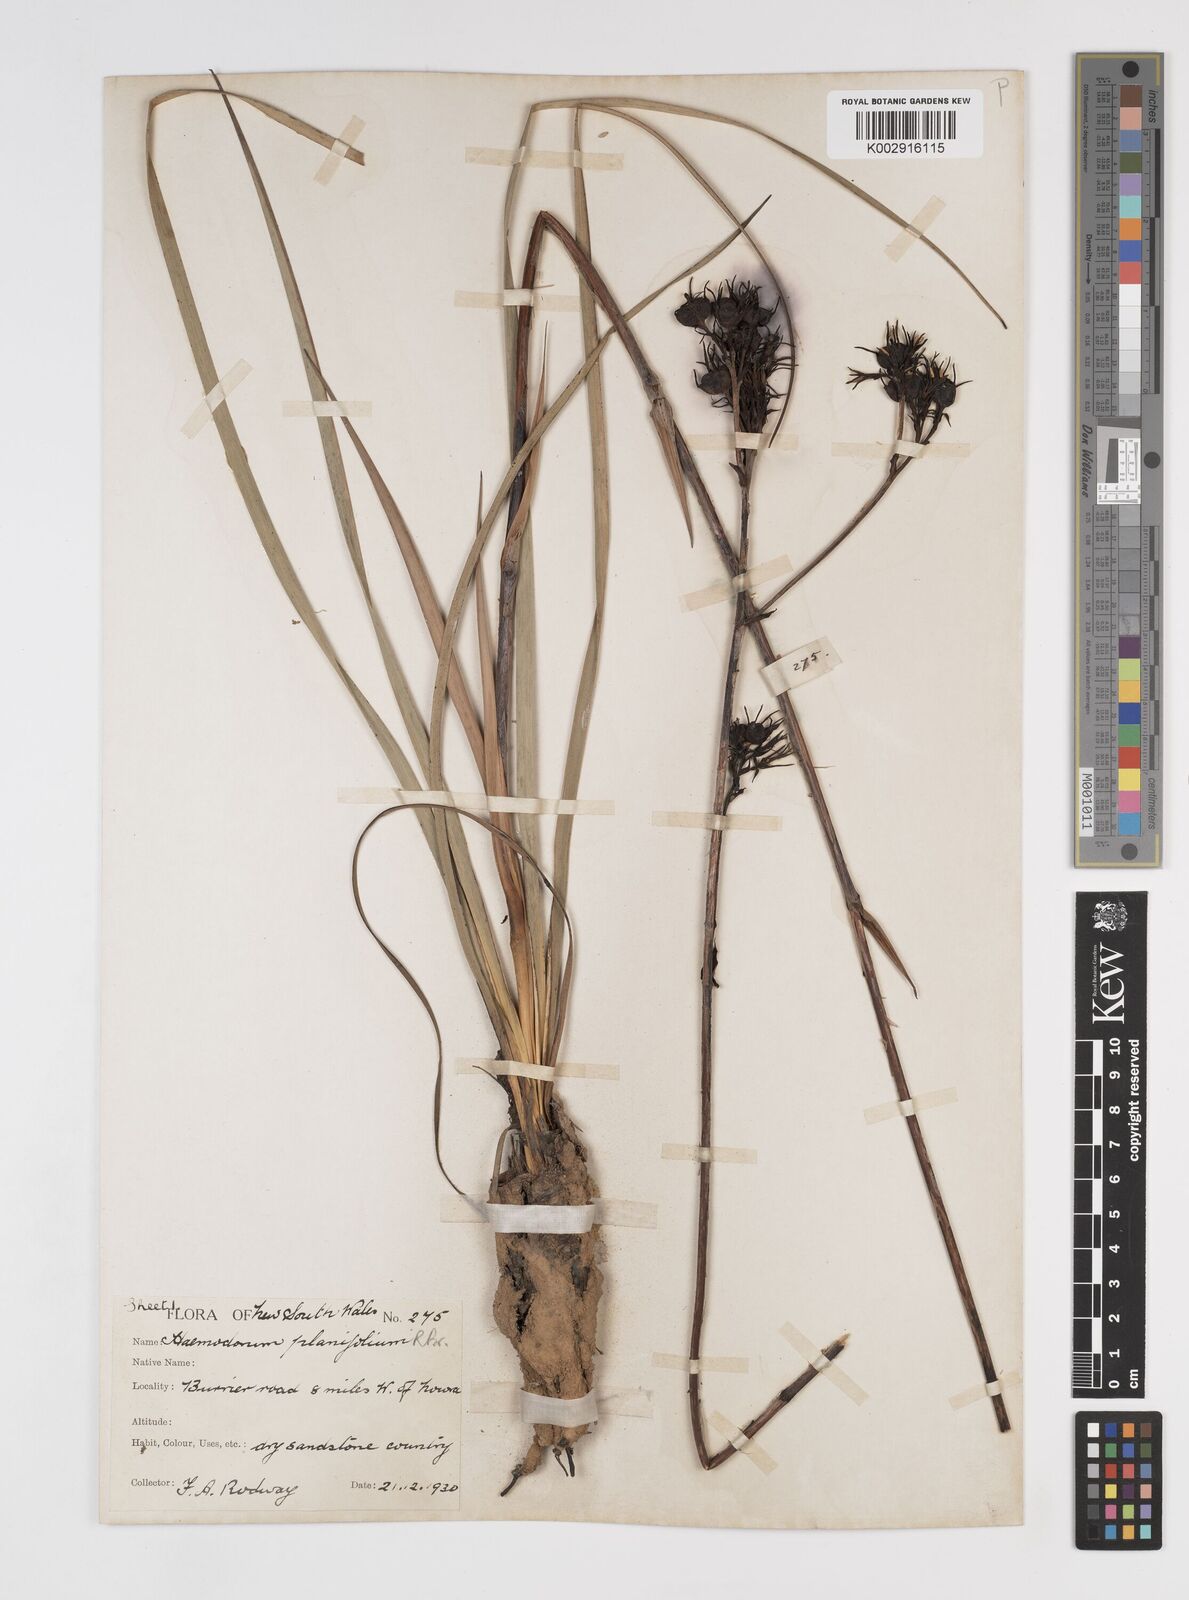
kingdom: Plantae
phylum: Tracheophyta
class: Liliopsida
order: Commelinales
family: Haemodoraceae
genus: Haemodorum
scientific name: Haemodorum planifolium
